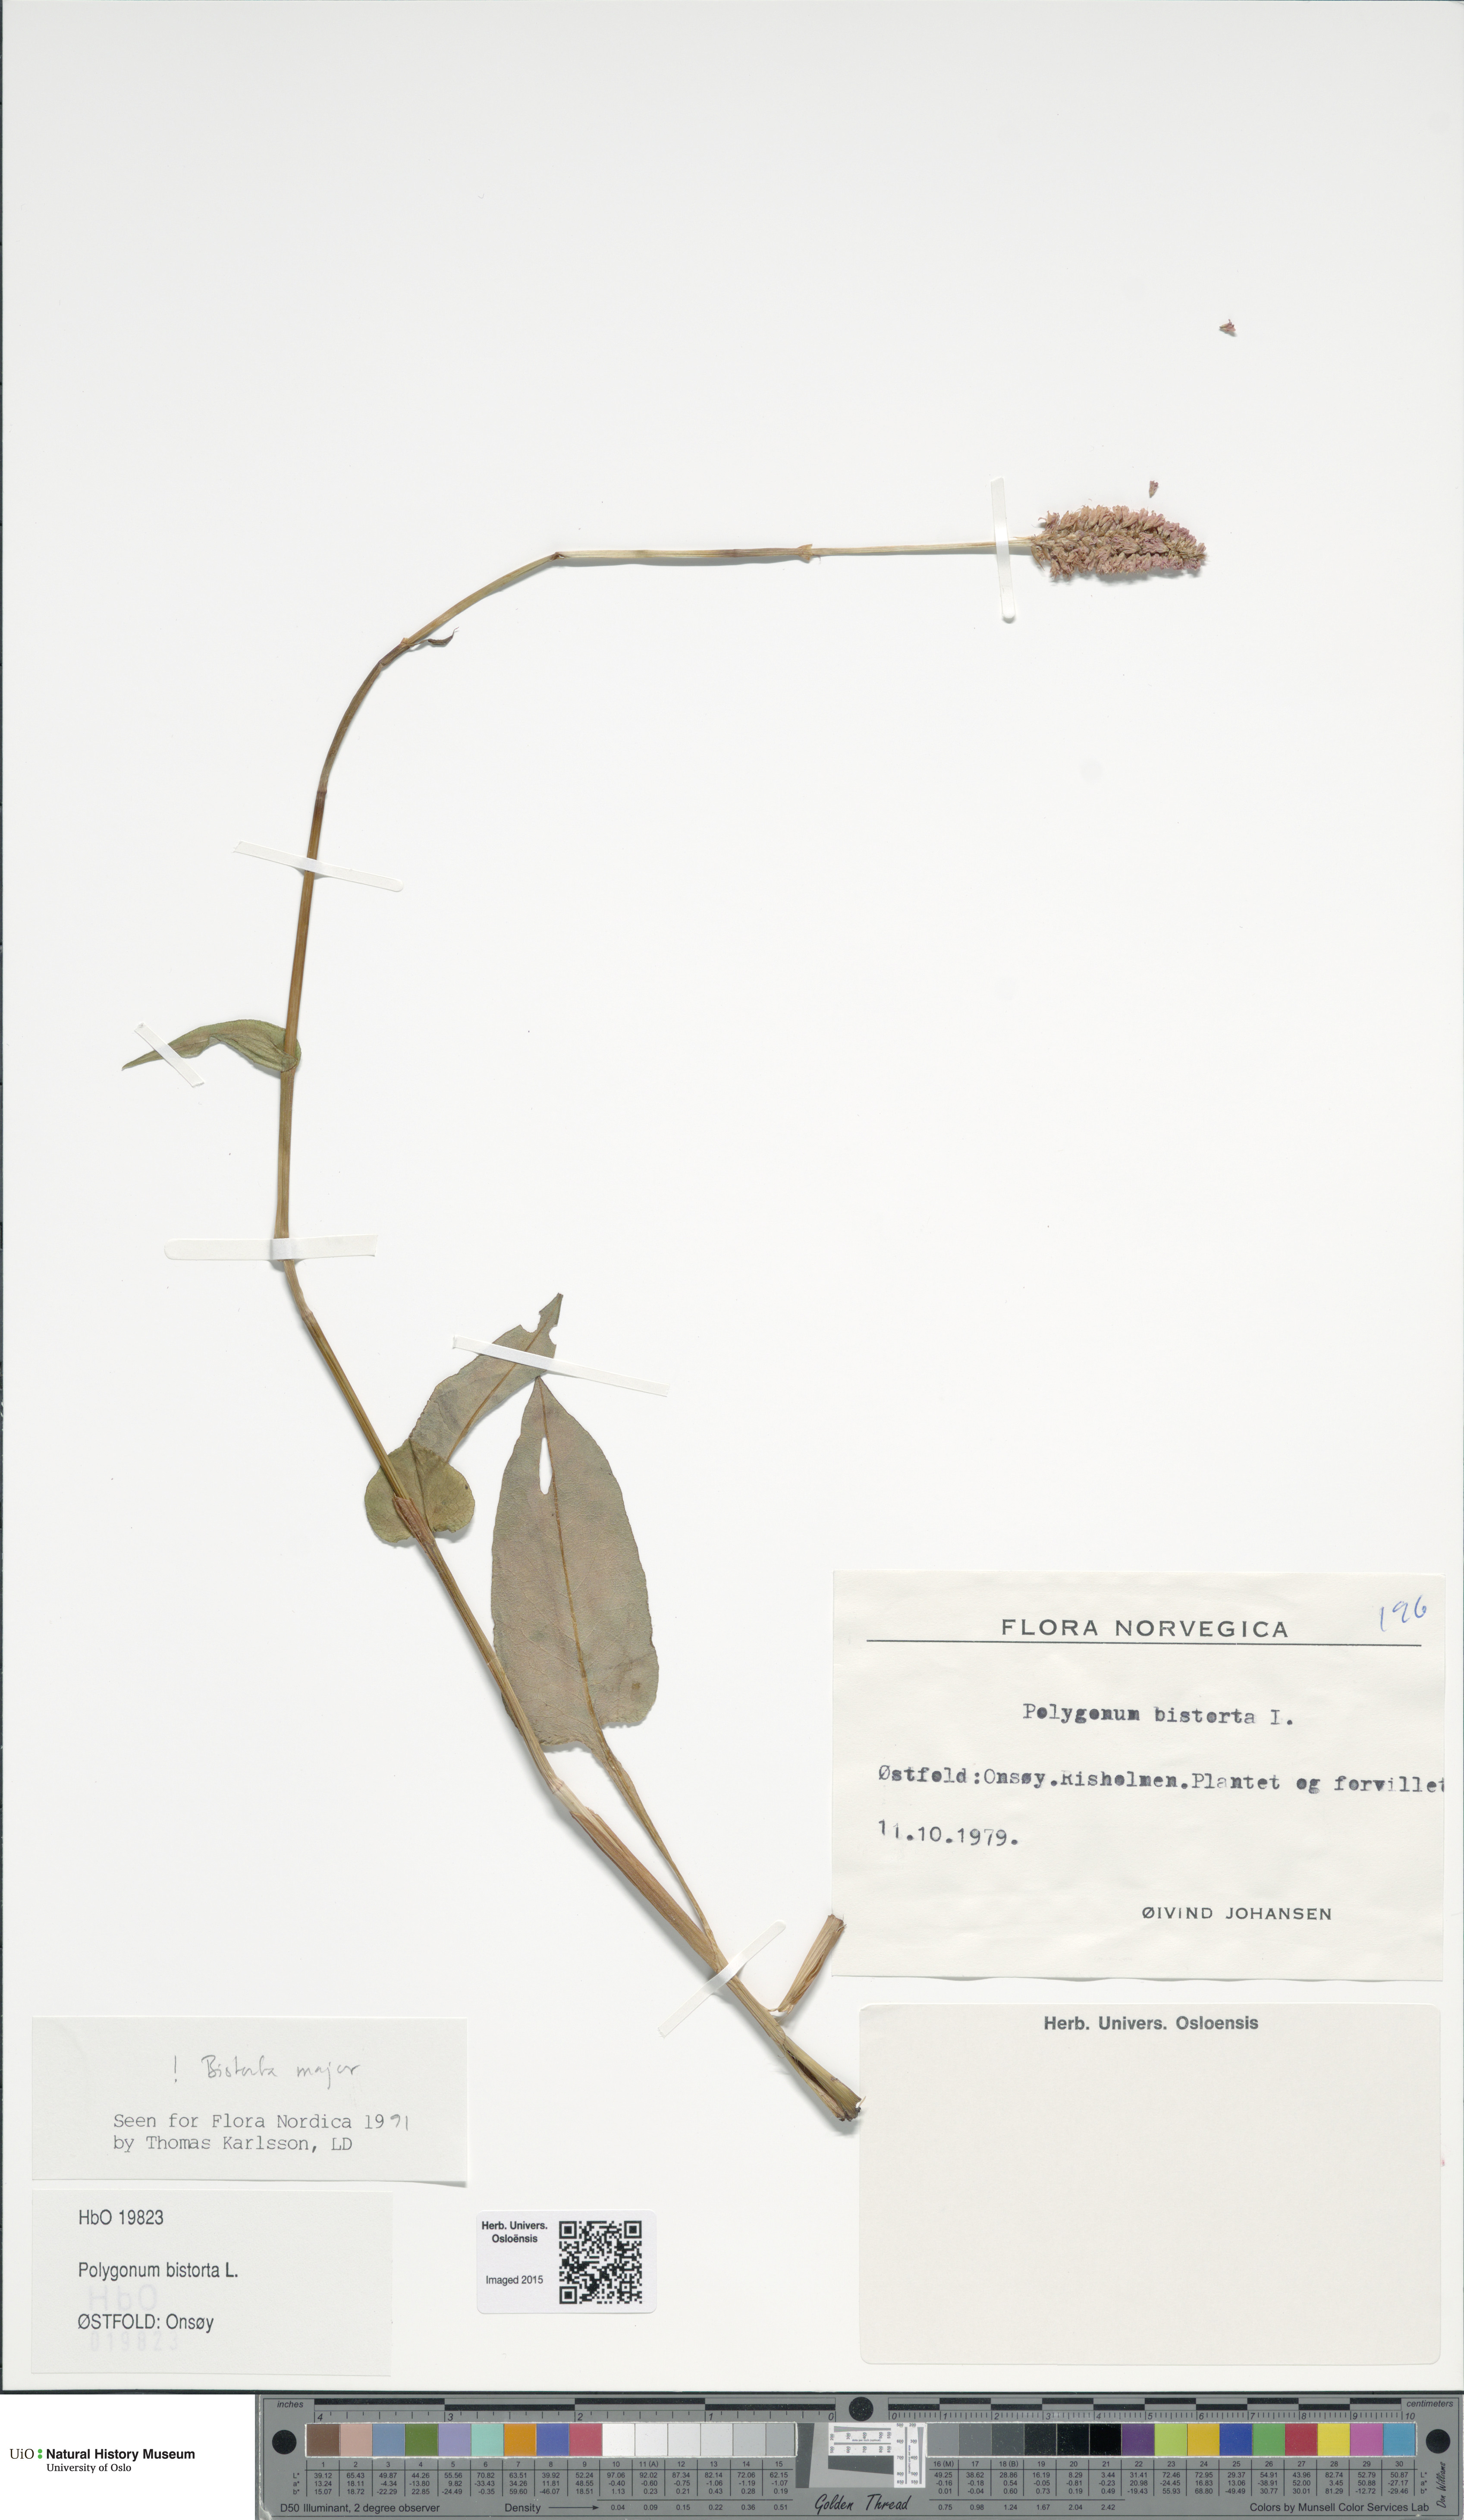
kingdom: Plantae
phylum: Tracheophyta
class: Magnoliopsida
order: Caryophyllales
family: Polygonaceae
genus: Bistorta
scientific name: Bistorta officinalis
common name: Common bistort
